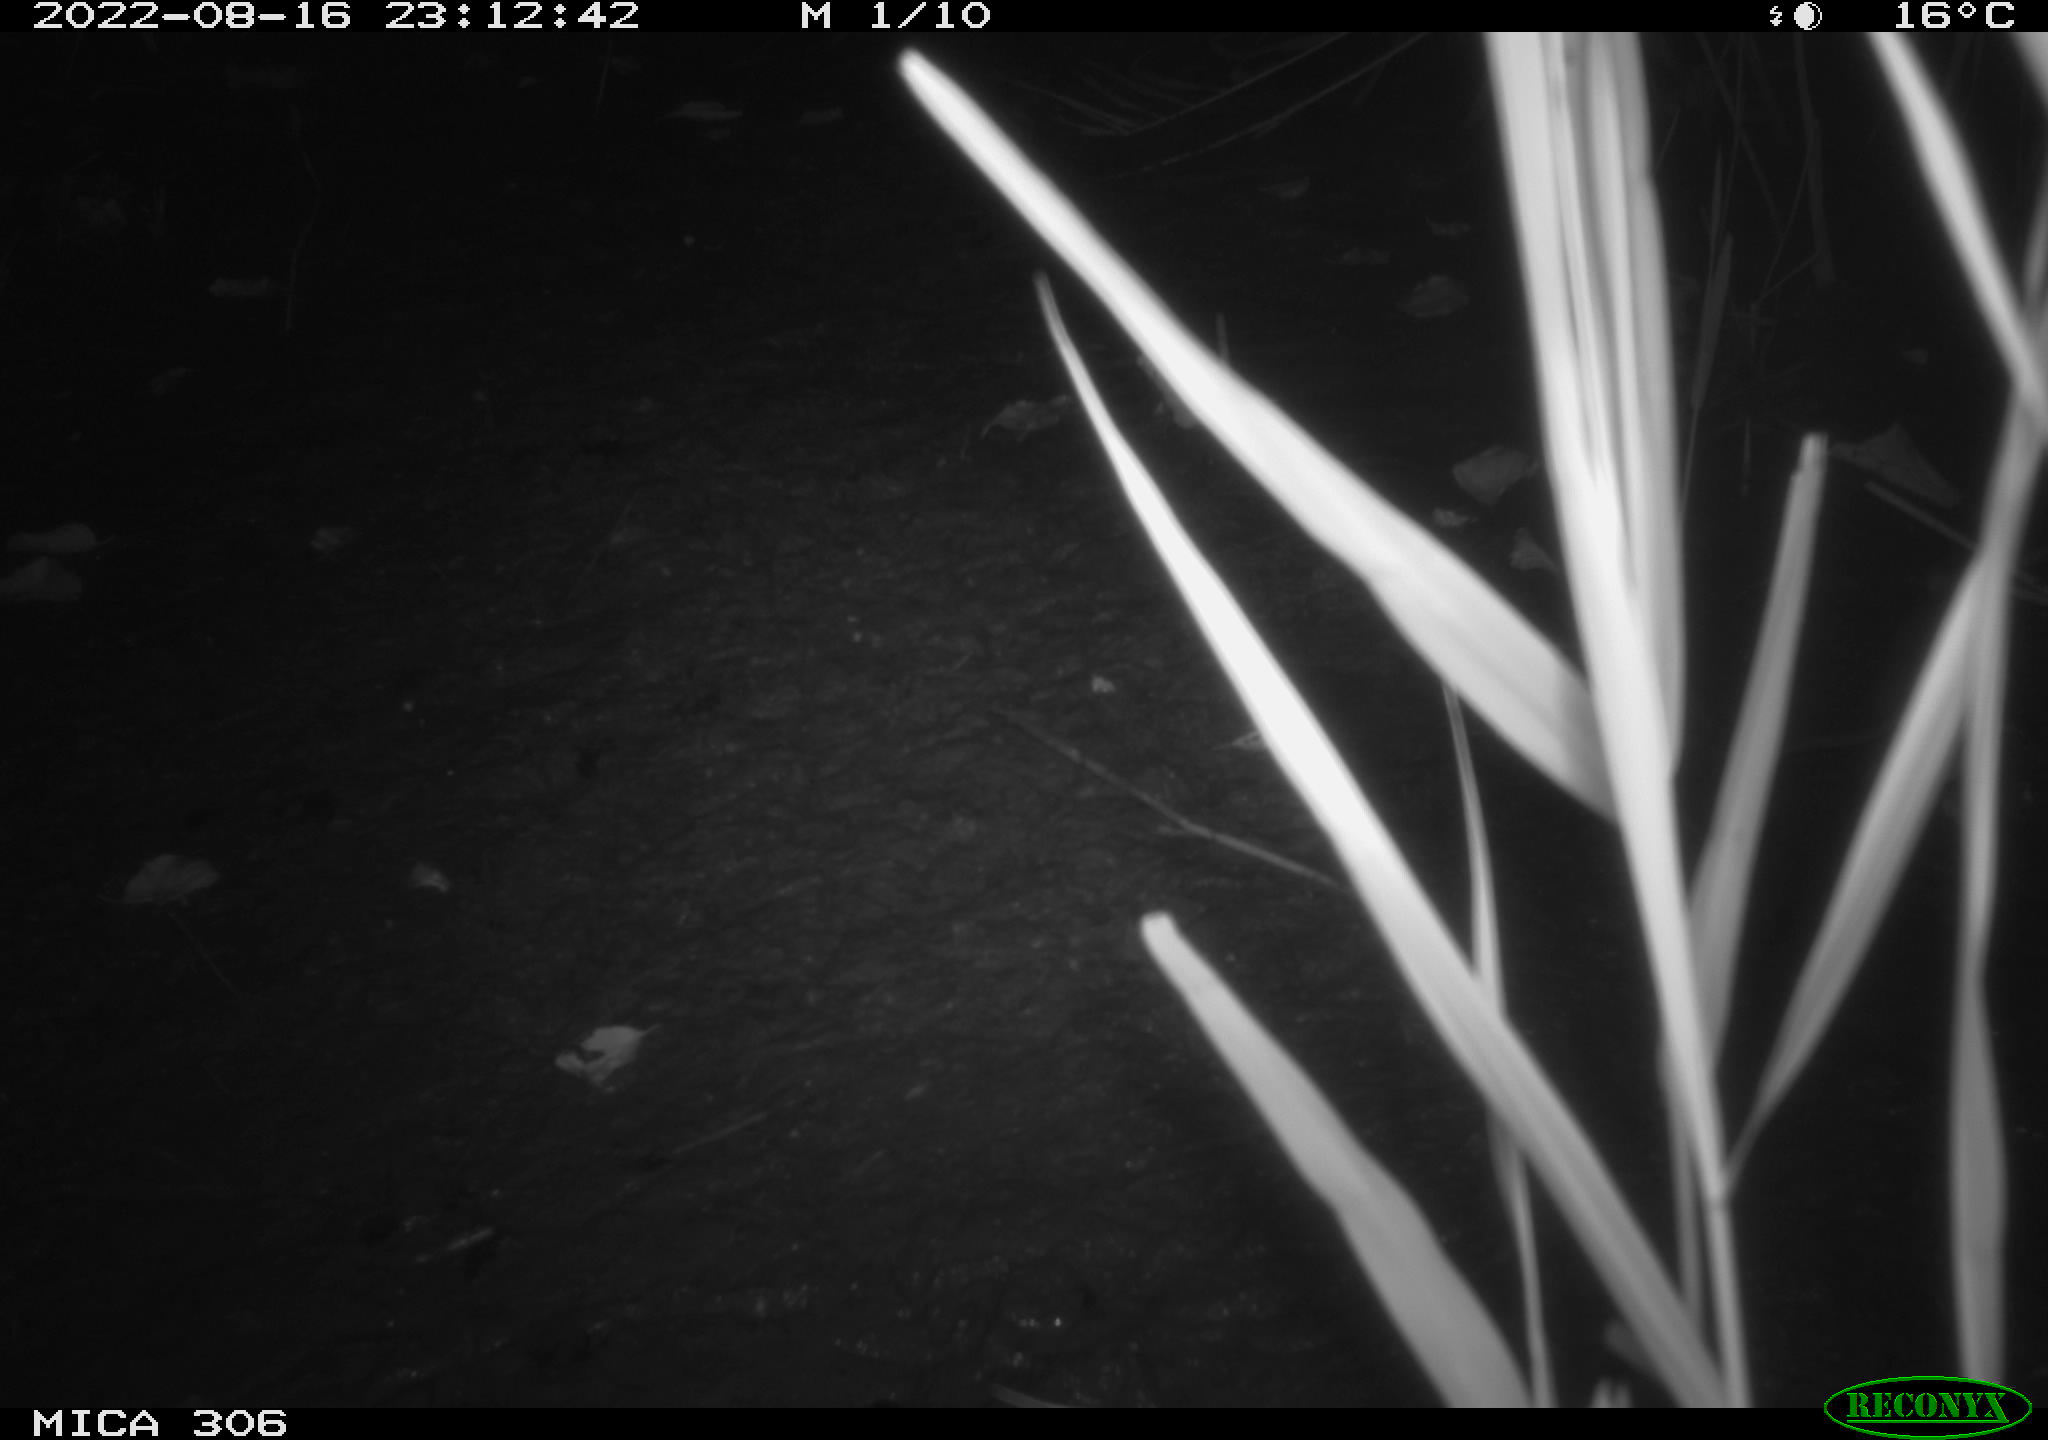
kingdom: Animalia
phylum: Chordata
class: Mammalia
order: Rodentia
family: Muridae
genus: Rattus
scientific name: Rattus norvegicus
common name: Brown rat
